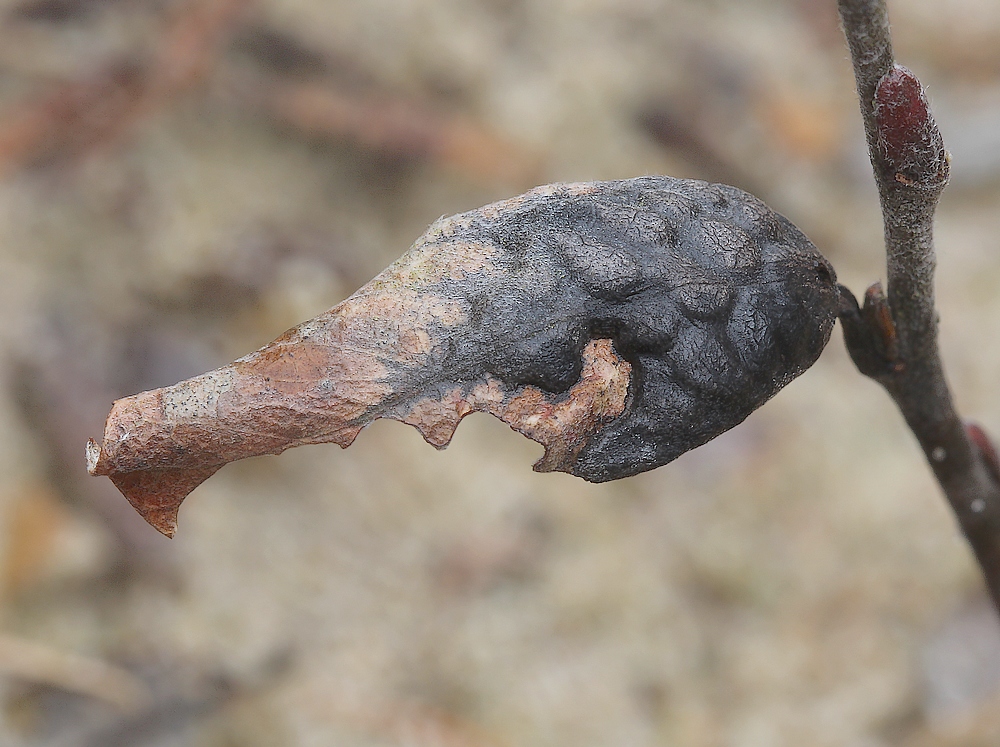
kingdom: Fungi
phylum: Ascomycota
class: Leotiomycetes
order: Rhytismatales
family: Rhytismataceae
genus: Rhytisma
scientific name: Rhytisma salicinum
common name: pile-rynkeplet
